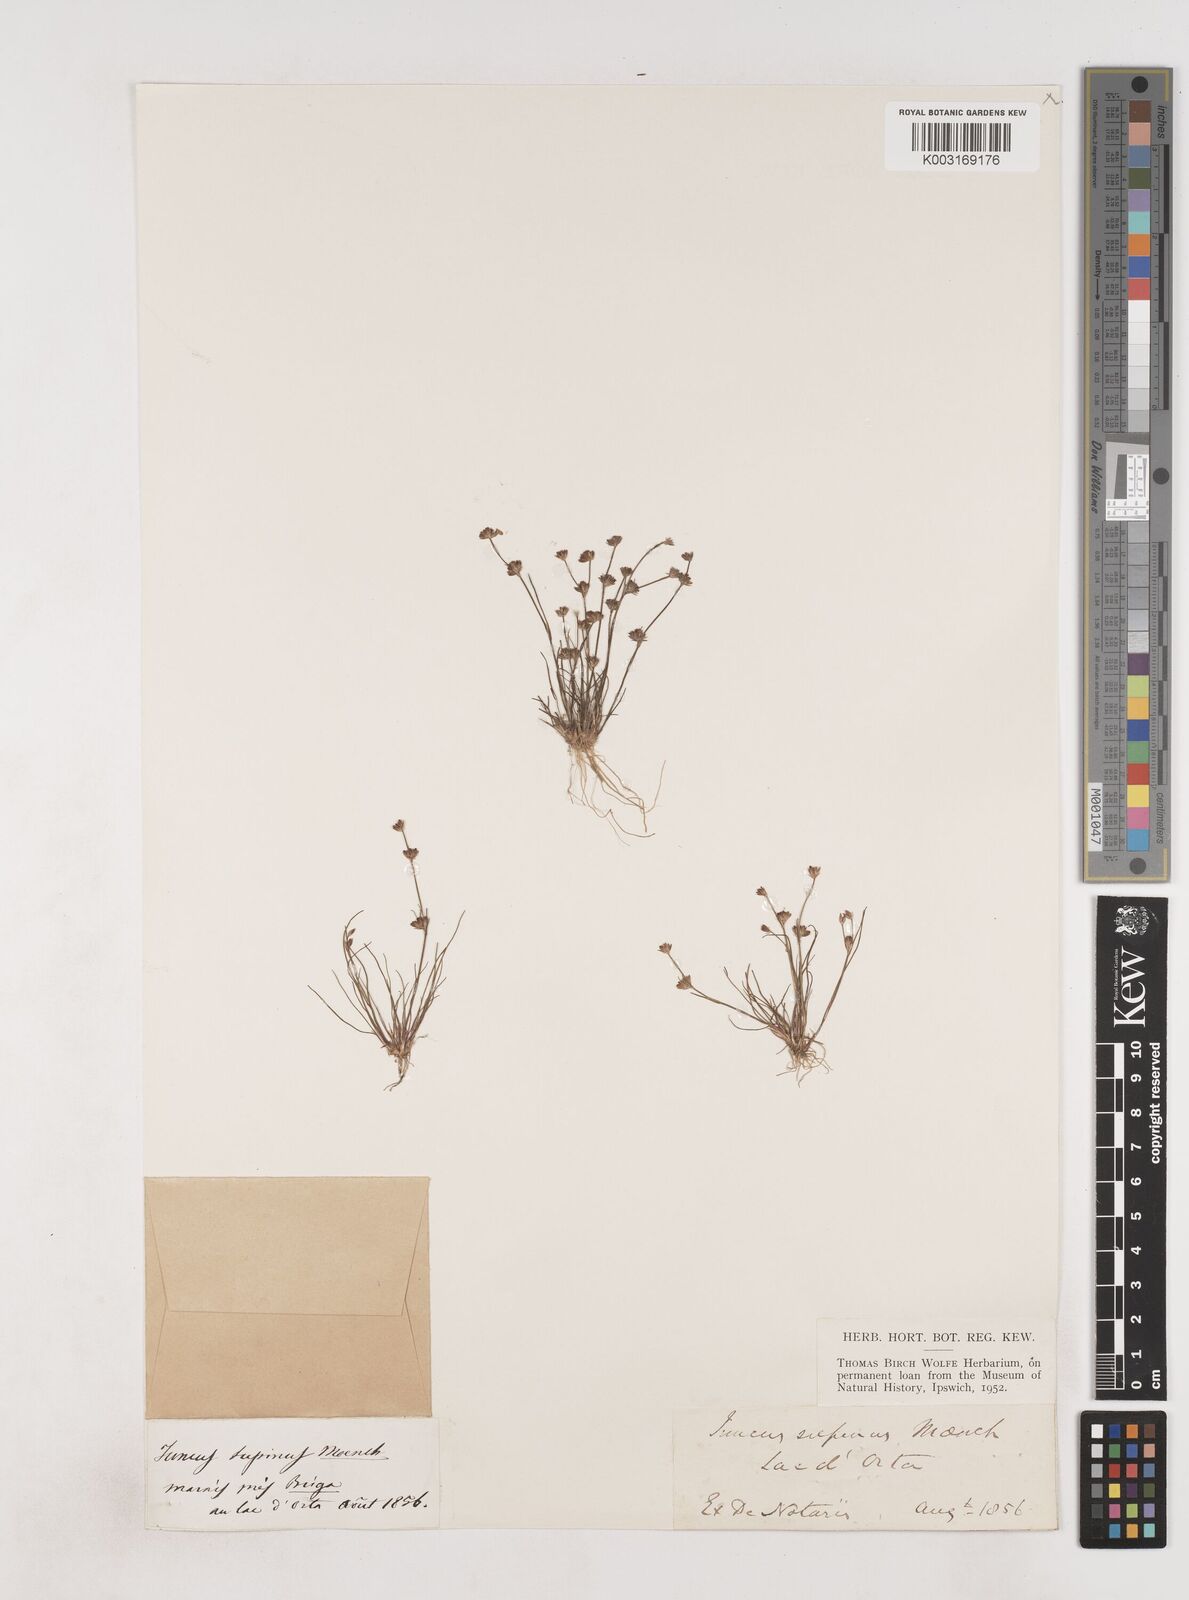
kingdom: Plantae
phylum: Tracheophyta
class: Liliopsida
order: Poales
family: Juncaceae
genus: Juncus
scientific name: Juncus bulbosus
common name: Bulbous rush
